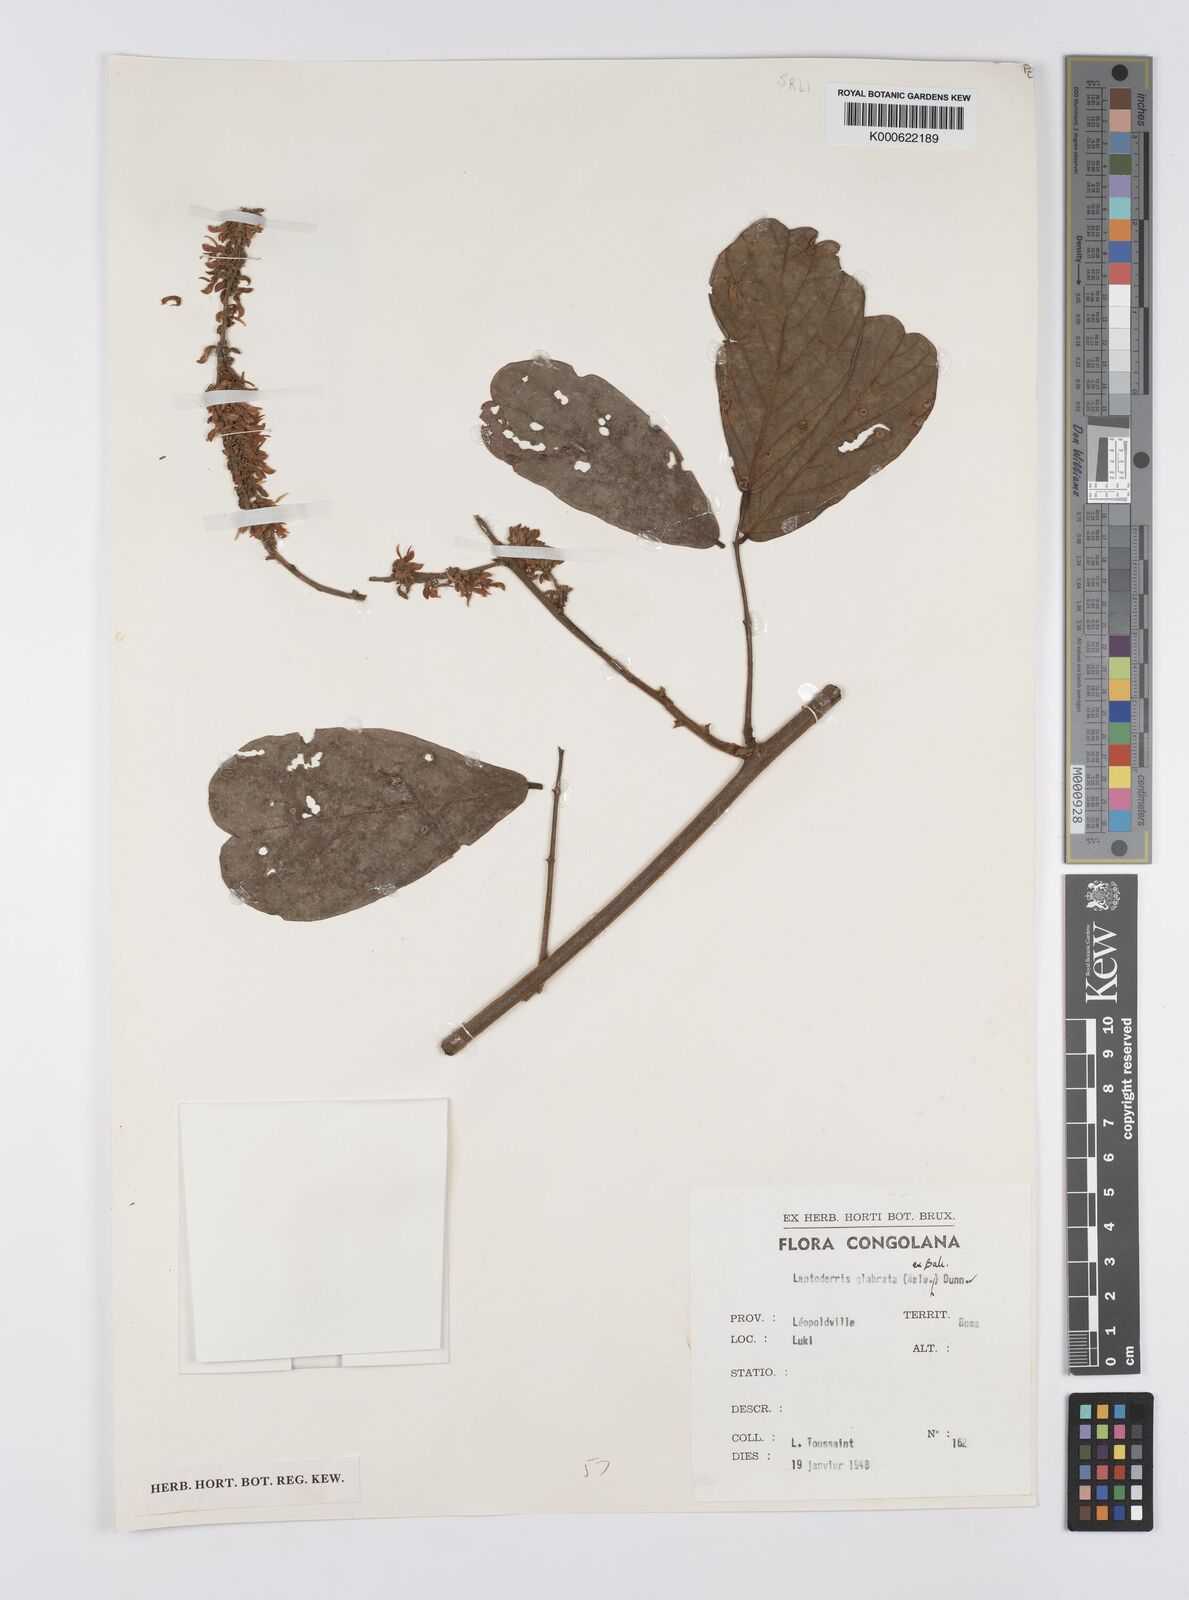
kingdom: Plantae
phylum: Tracheophyta
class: Magnoliopsida
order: Fabales
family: Fabaceae
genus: Leptoderris
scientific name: Leptoderris glabrata
